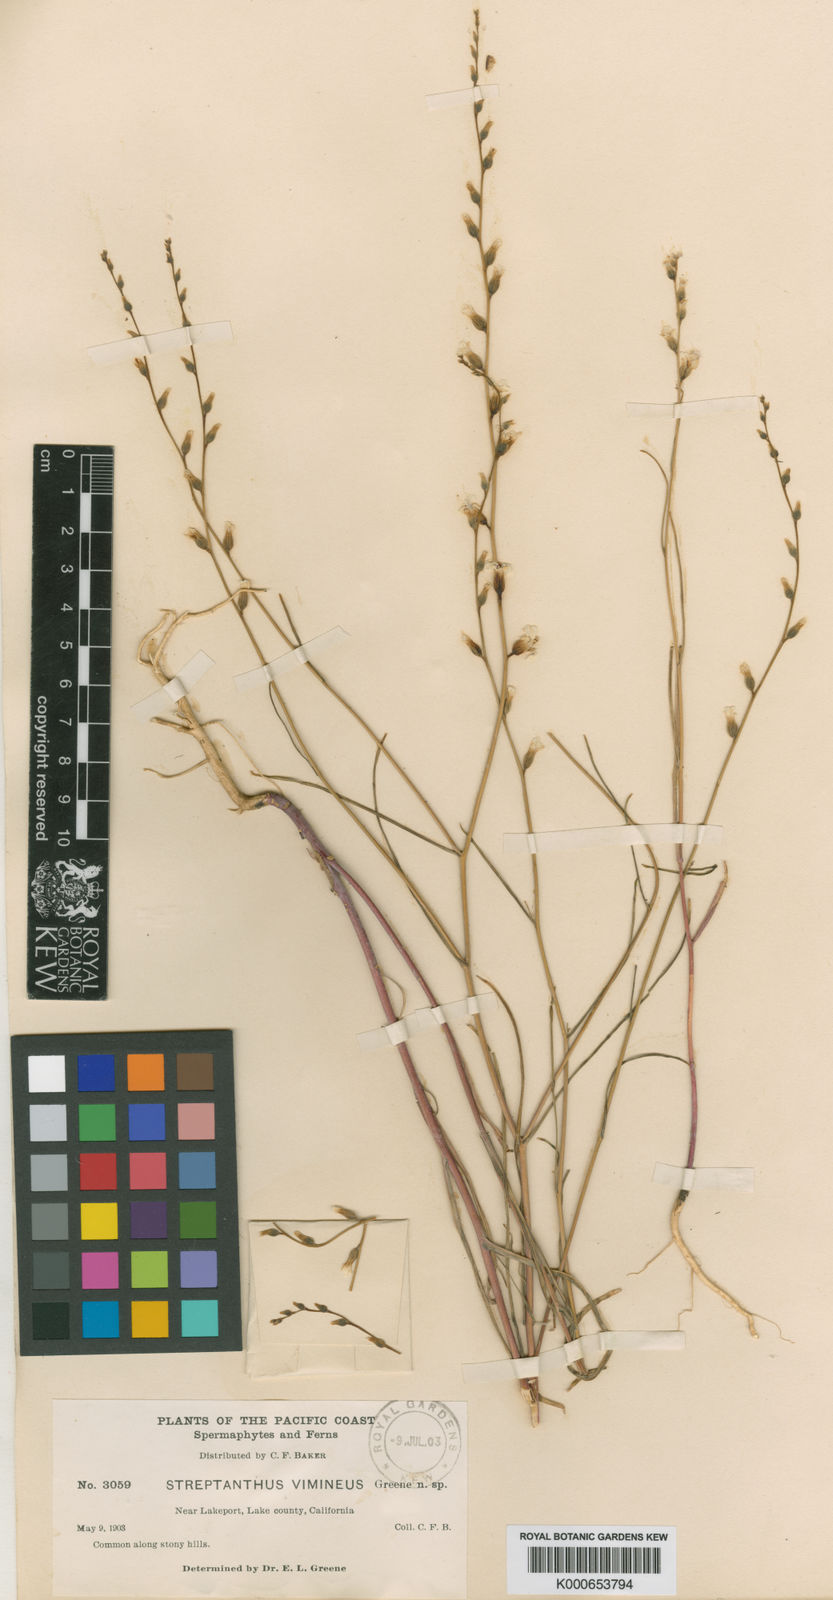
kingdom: Plantae
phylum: Tracheophyta
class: Magnoliopsida
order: Brassicales
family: Brassicaceae
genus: Streptanthus
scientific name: Streptanthus
